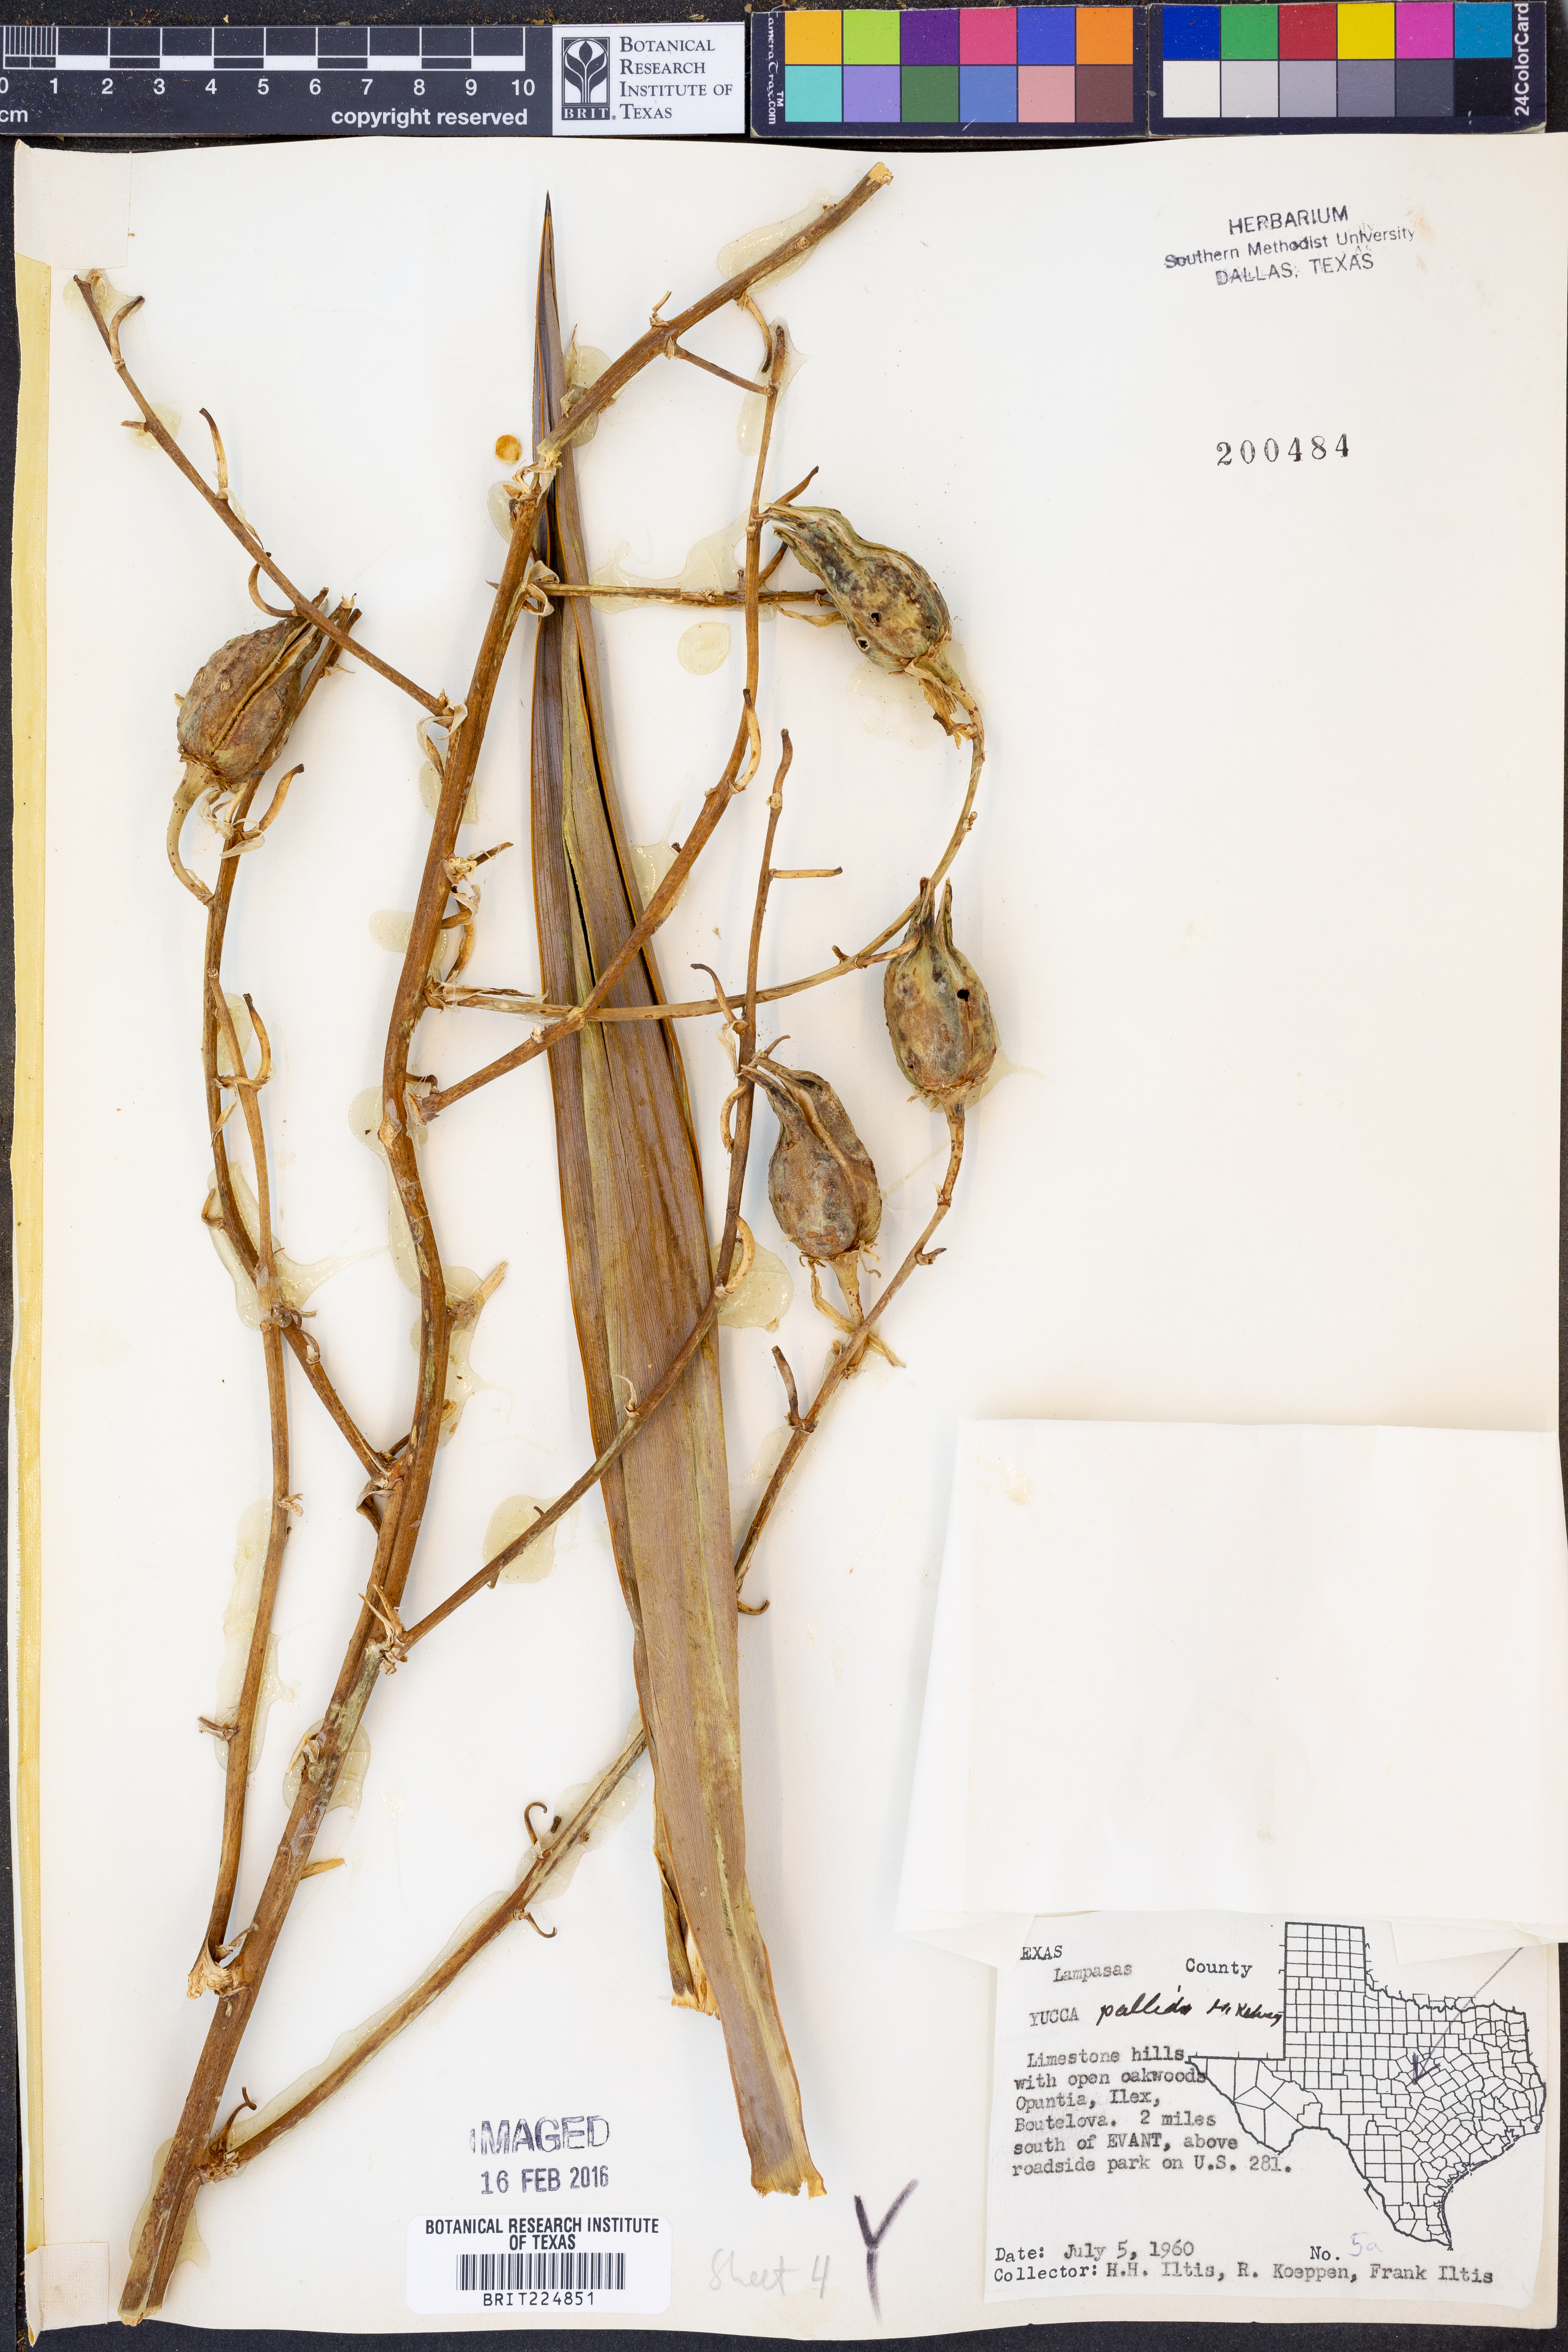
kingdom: Plantae
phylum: Tracheophyta
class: Liliopsida
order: Asparagales
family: Asparagaceae
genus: Yucca
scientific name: Yucca pallida
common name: Pale leaf yucca
